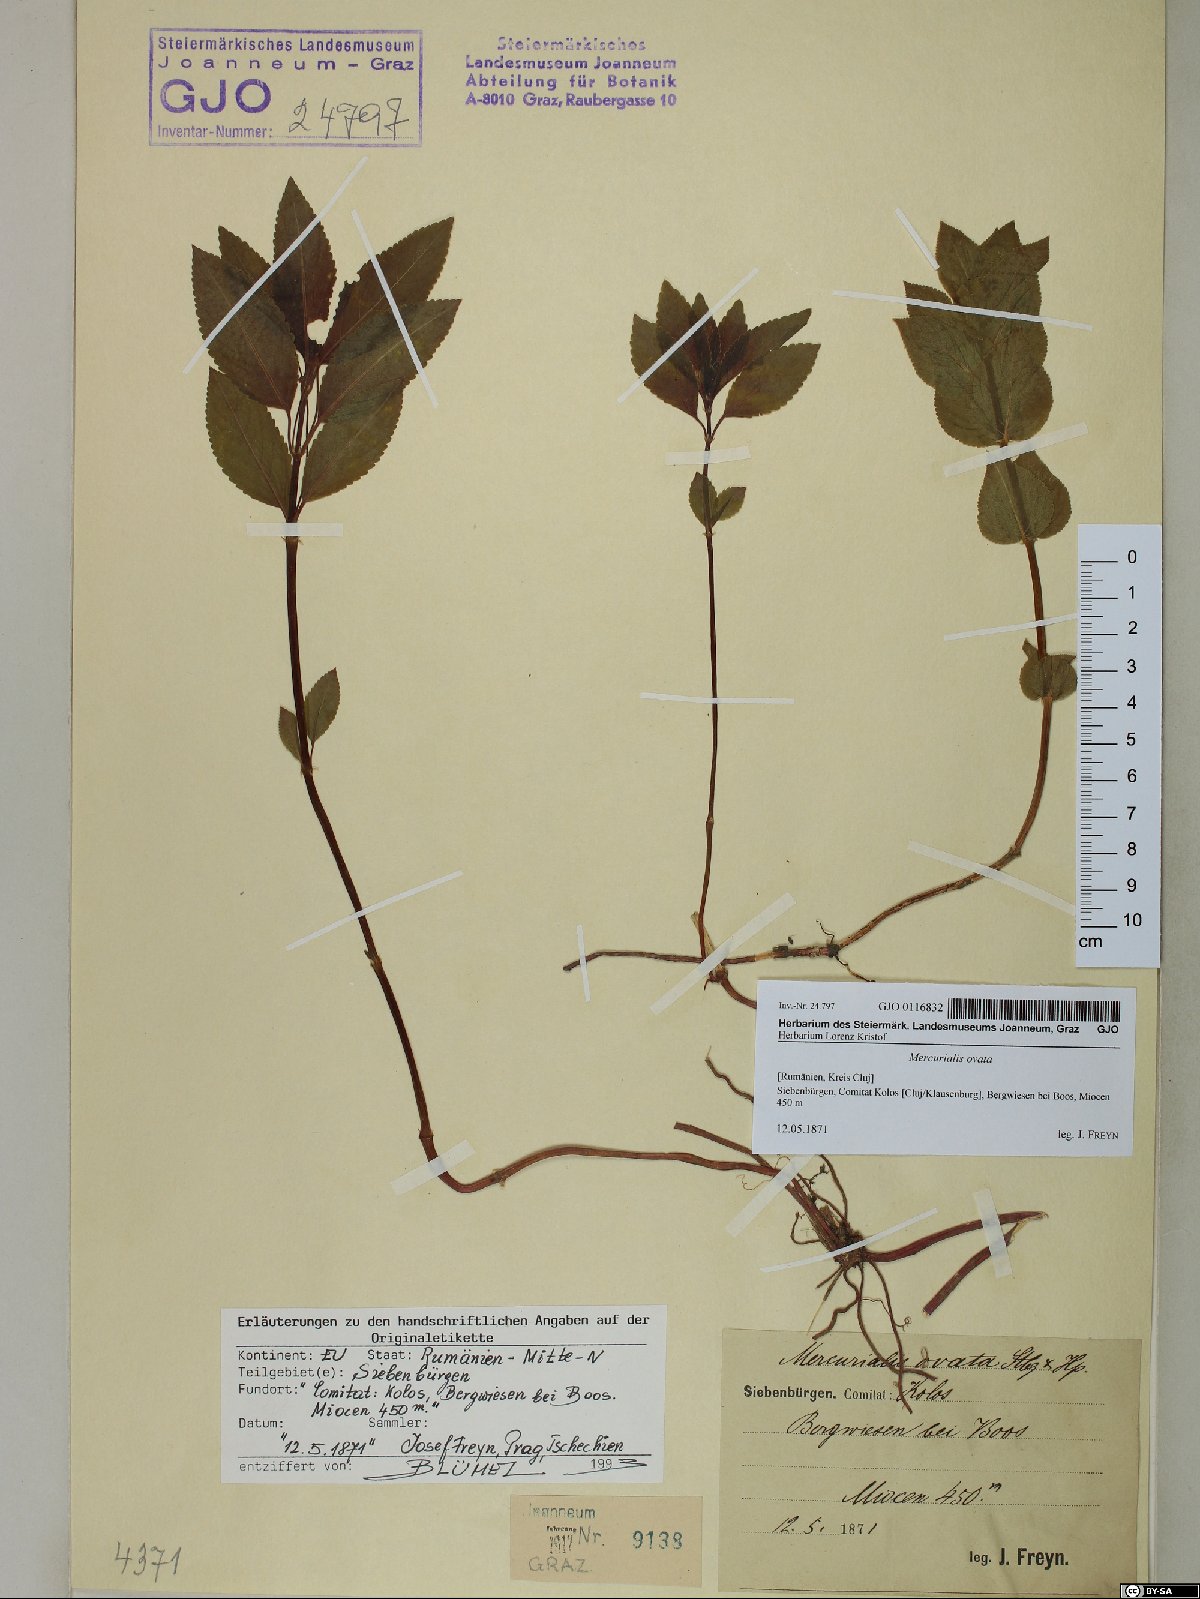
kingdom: Plantae
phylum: Tracheophyta
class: Magnoliopsida
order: Malpighiales
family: Euphorbiaceae
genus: Mercurialis
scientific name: Mercurialis ovata
